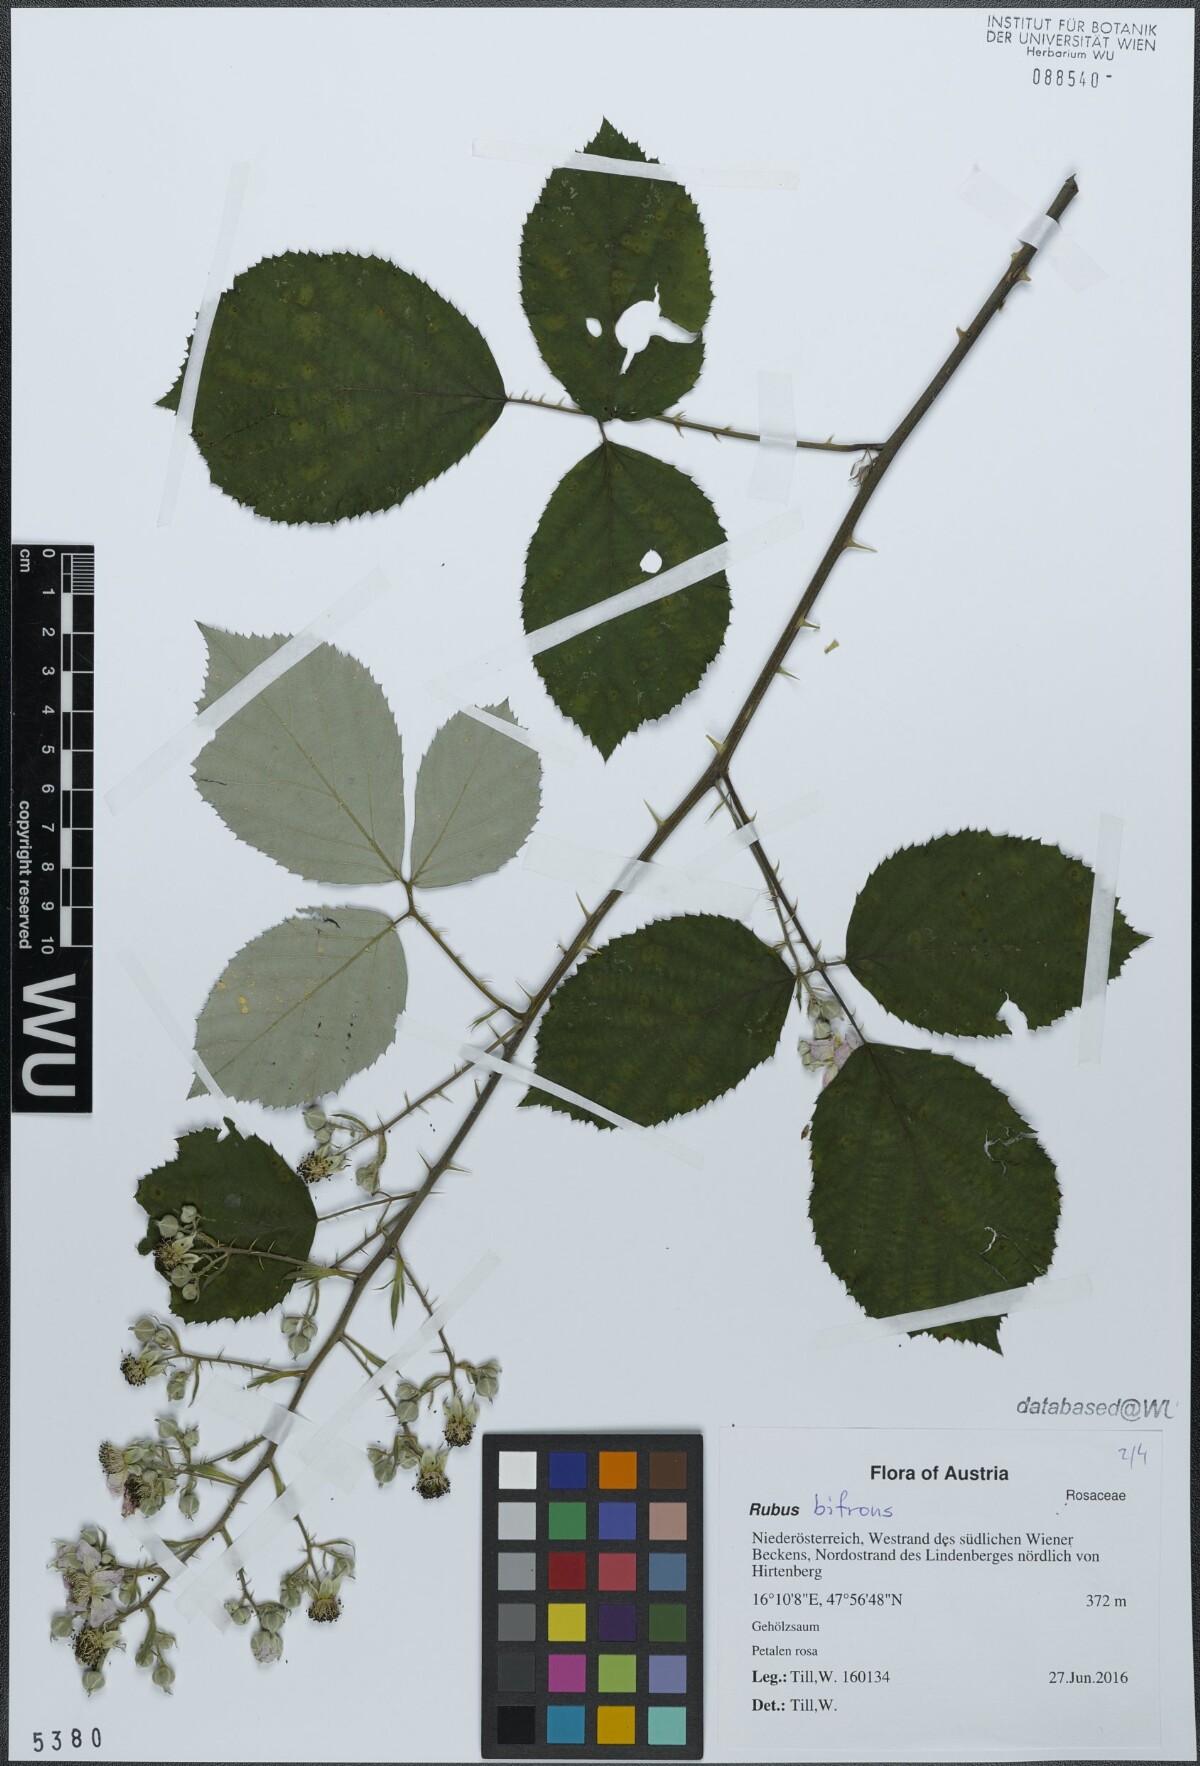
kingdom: Plantae
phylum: Tracheophyta
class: Magnoliopsida
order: Rosales
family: Rosaceae
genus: Rubus
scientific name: Rubus bifrons
